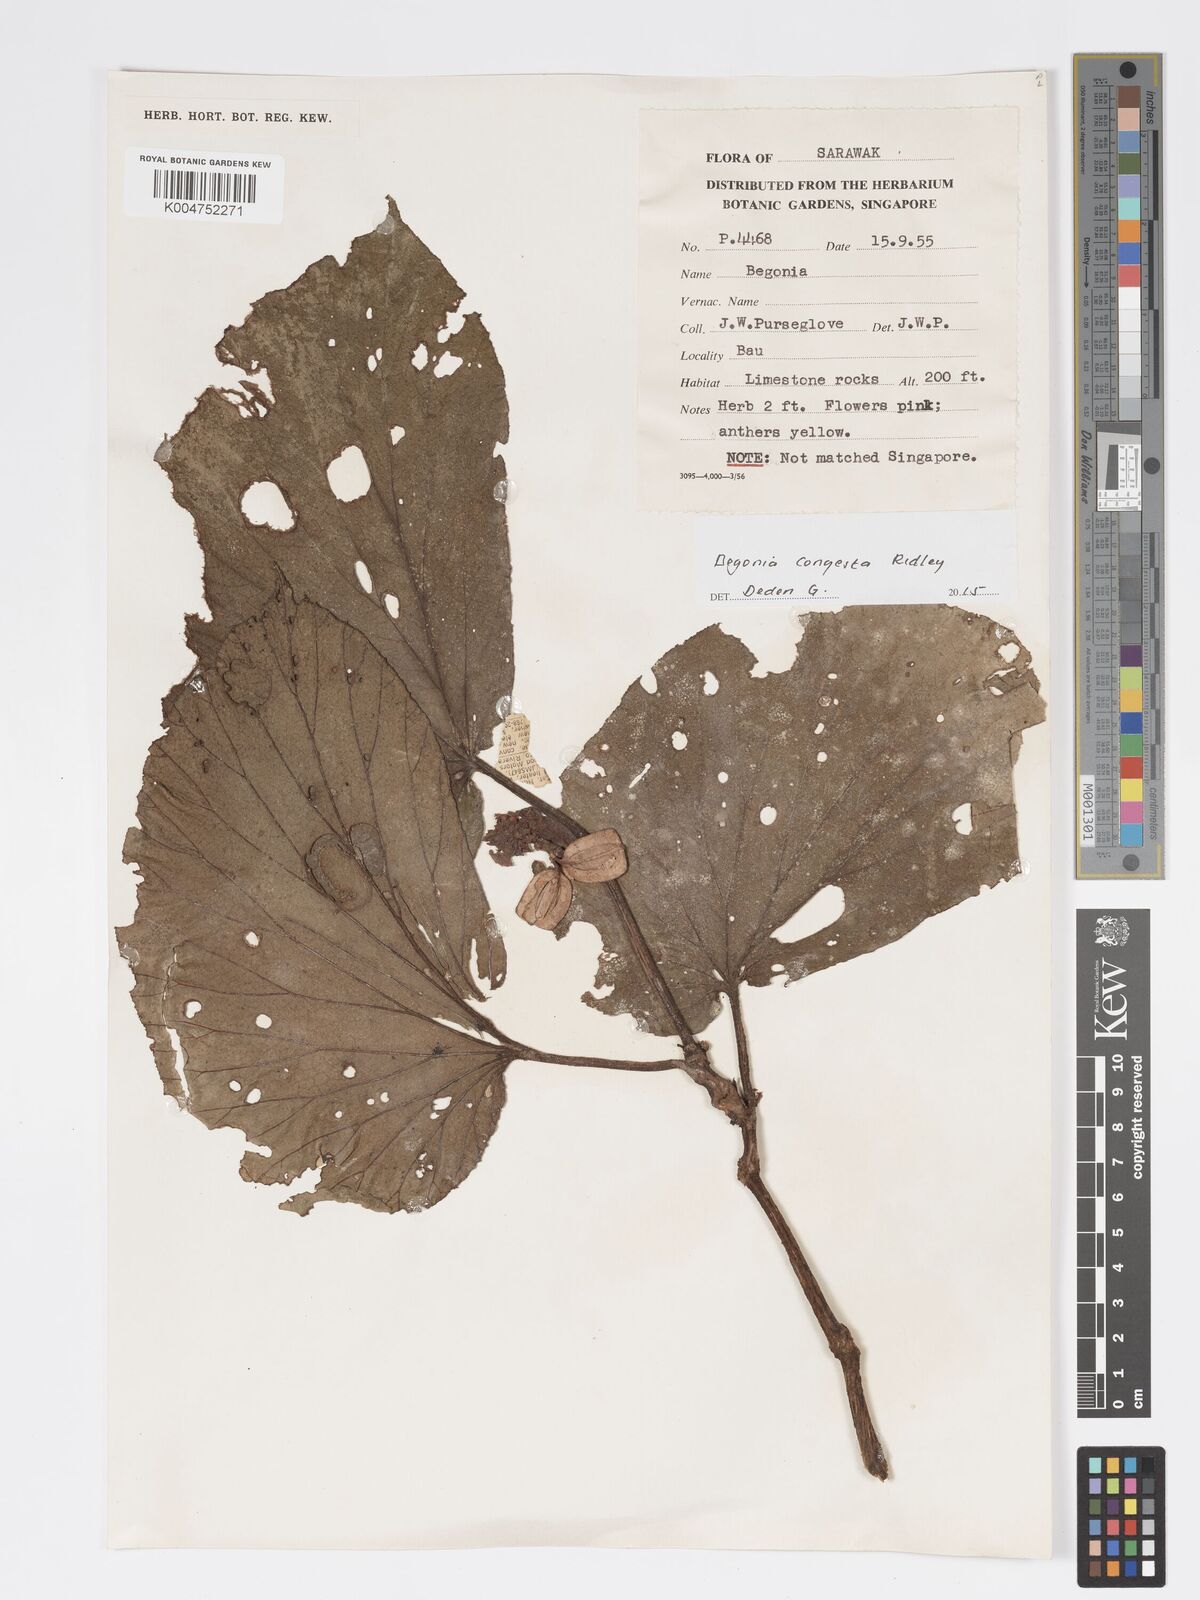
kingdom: Plantae
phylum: Tracheophyta
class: Magnoliopsida
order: Cucurbitales
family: Begoniaceae
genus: Begonia
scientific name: Begonia congesta
